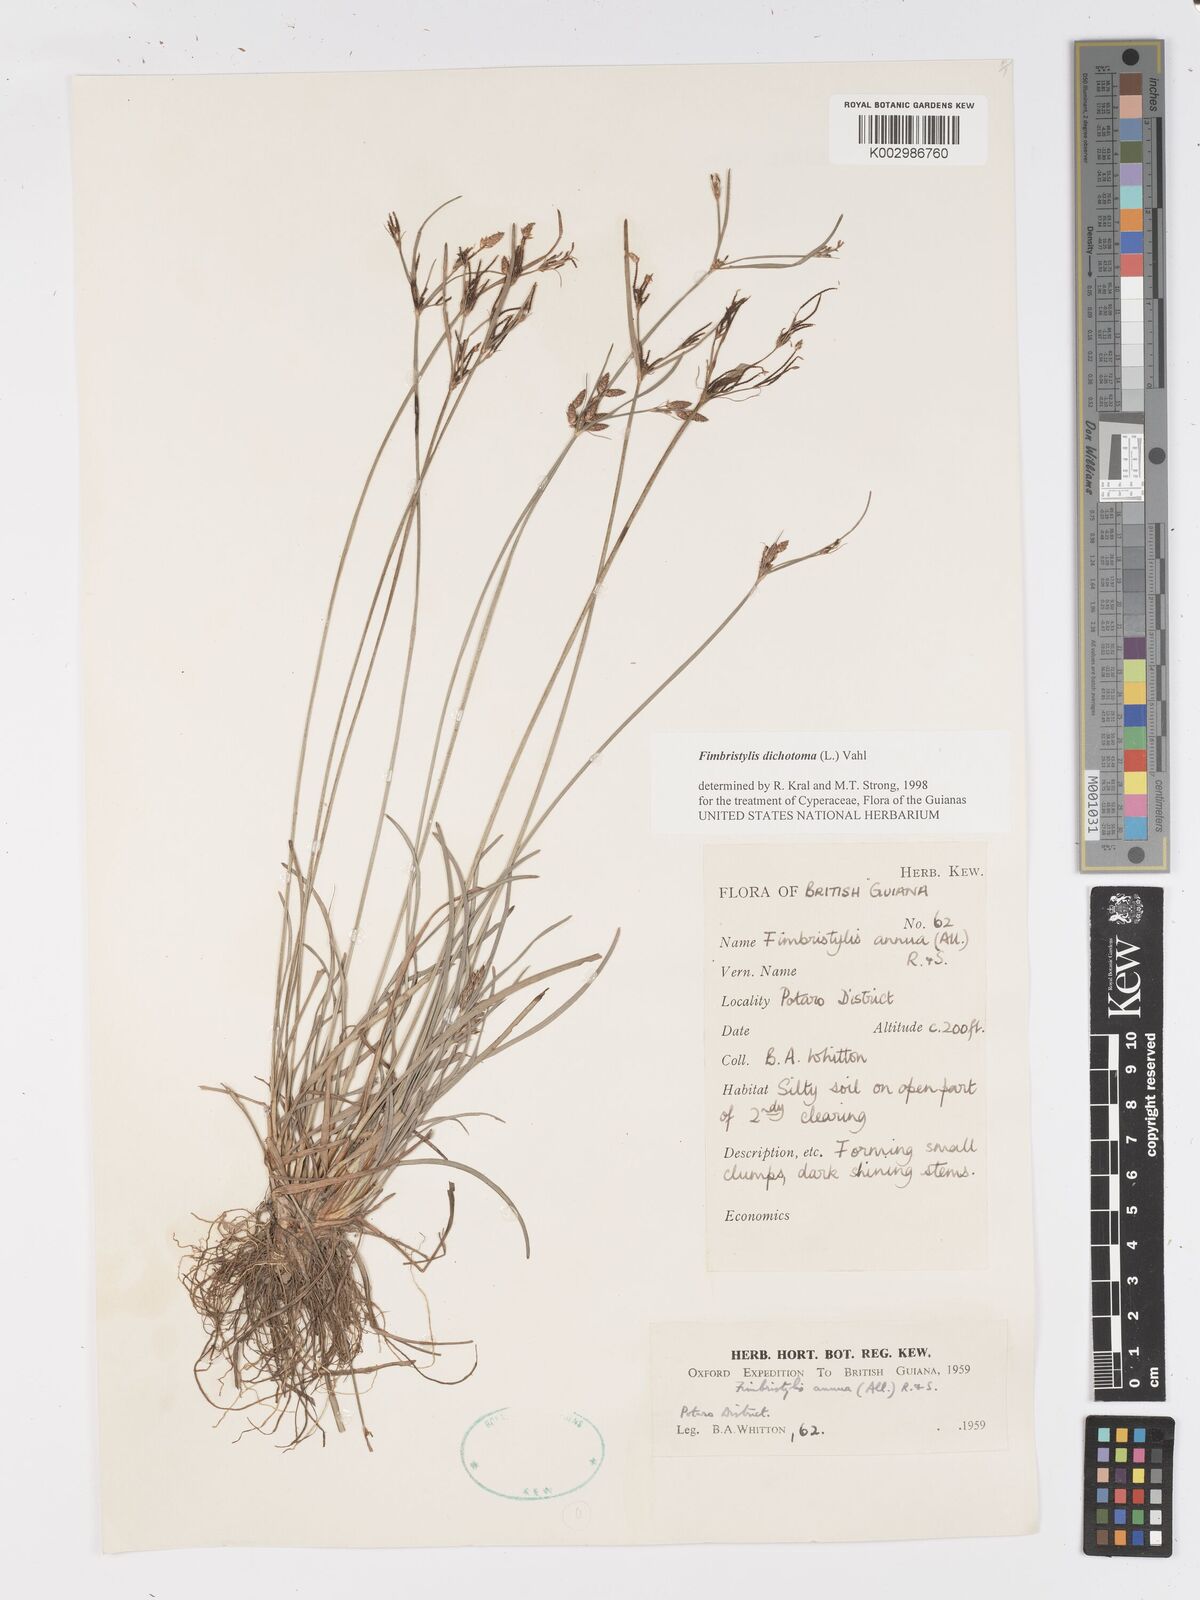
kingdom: Plantae
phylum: Tracheophyta
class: Liliopsida
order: Poales
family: Cyperaceae
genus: Fimbristylis
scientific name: Fimbristylis dichotoma
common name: Forked fimbry
